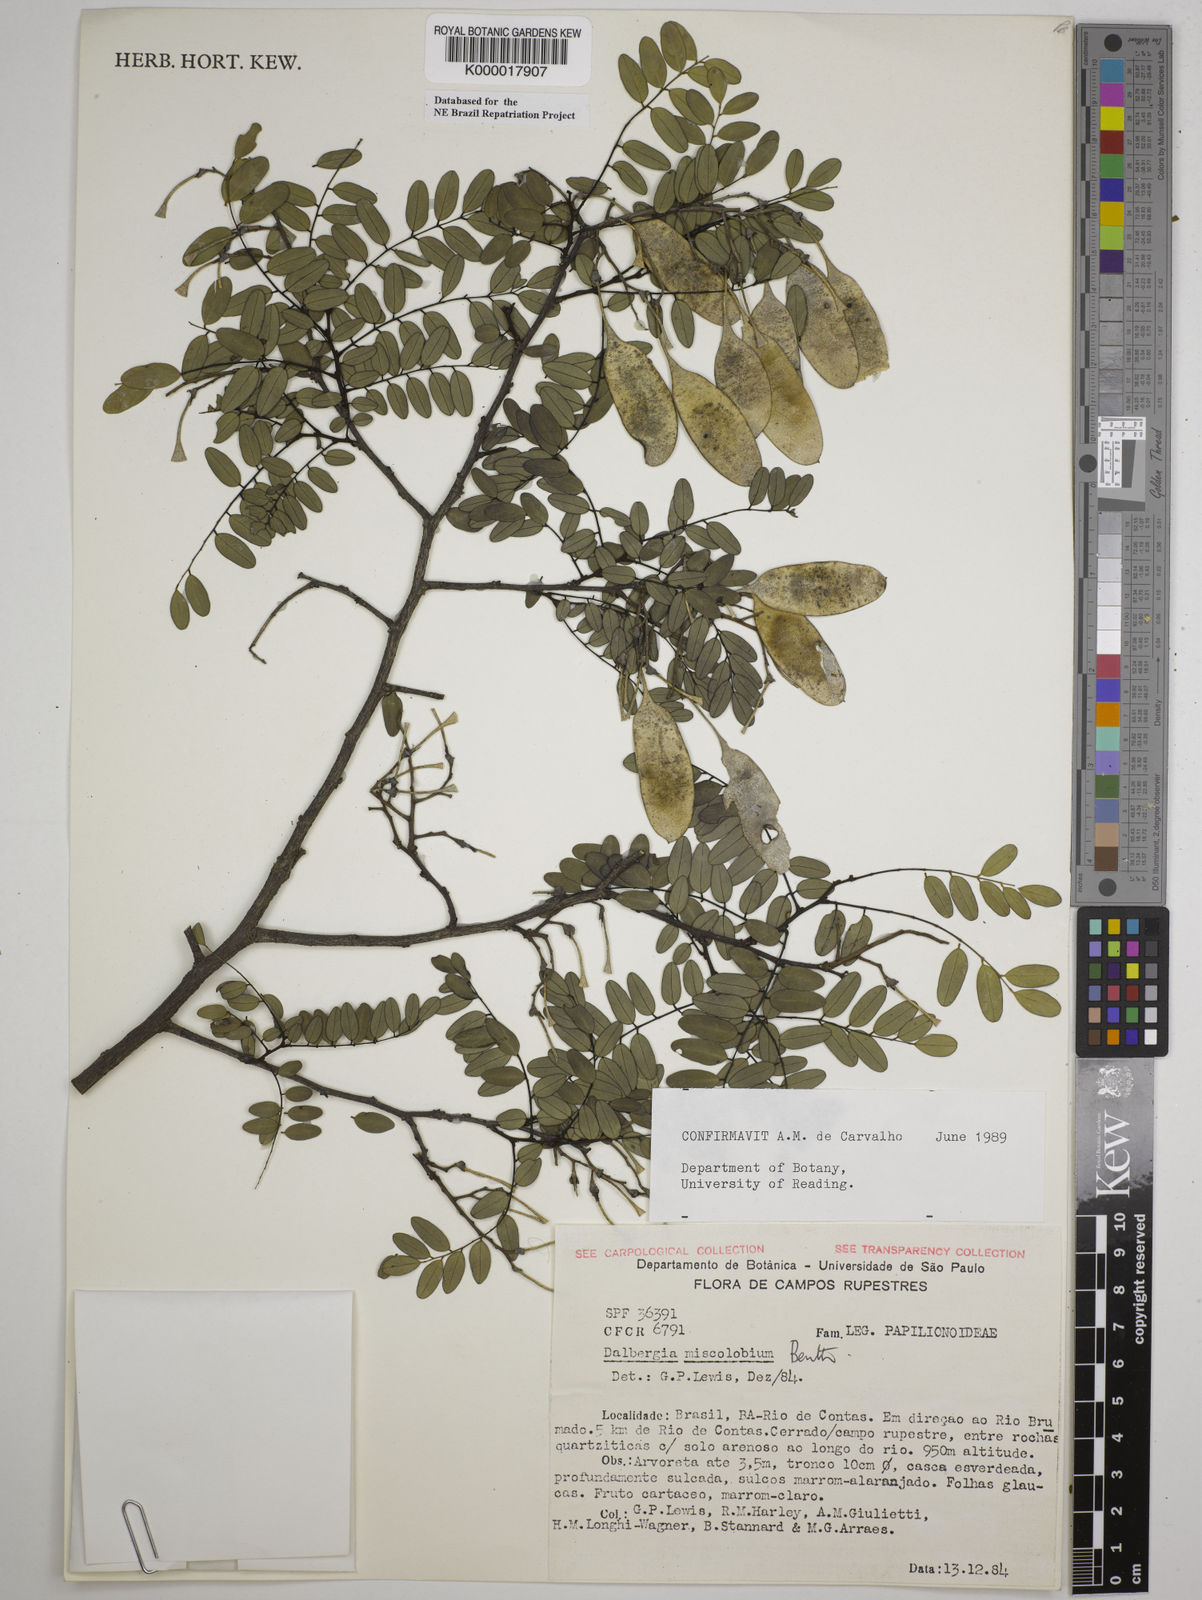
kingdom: Plantae
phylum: Tracheophyta
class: Magnoliopsida
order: Fabales
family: Fabaceae
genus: Dalbergia
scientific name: Dalbergia miscolobium
